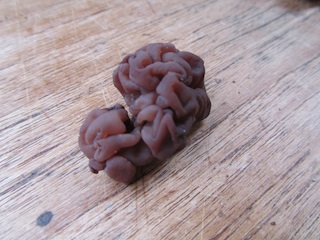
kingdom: Fungi
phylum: Ascomycota
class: Leotiomycetes
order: Helotiales
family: Gelatinodiscaceae
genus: Ascotremella
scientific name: Ascotremella faginea
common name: hjerne-bævreskive
